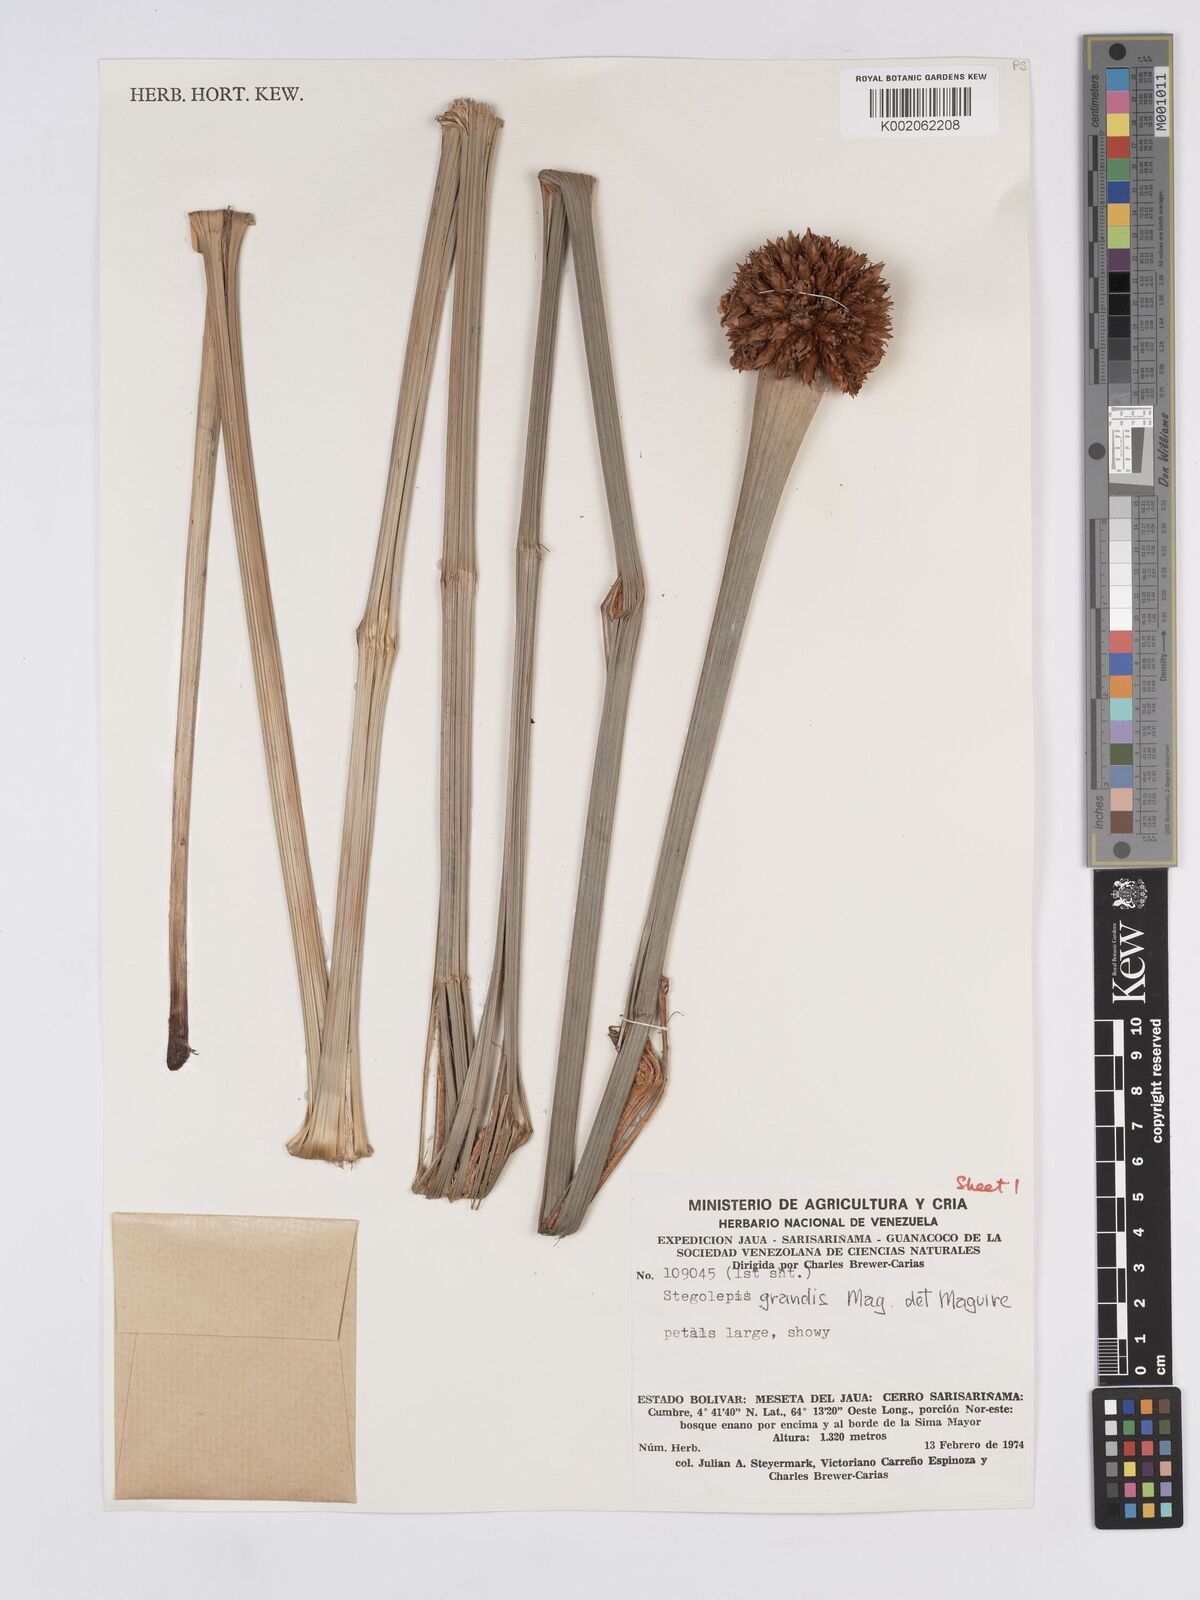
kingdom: Plantae
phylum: Tracheophyta
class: Liliopsida
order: Poales
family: Rapateaceae
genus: Stegolepis
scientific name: Stegolepis grandis
